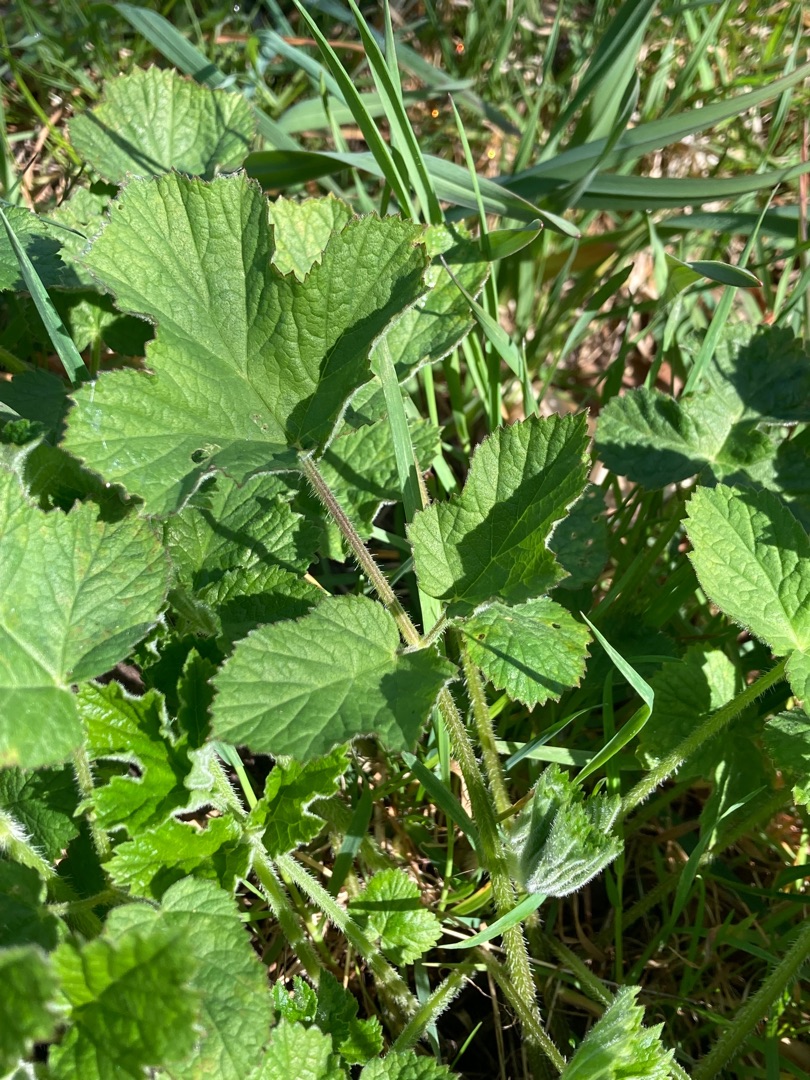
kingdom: Plantae
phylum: Tracheophyta
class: Magnoliopsida
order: Apiales
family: Apiaceae
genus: Heracleum
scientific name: Heracleum sphondylium
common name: Almindelig bjørneklo
